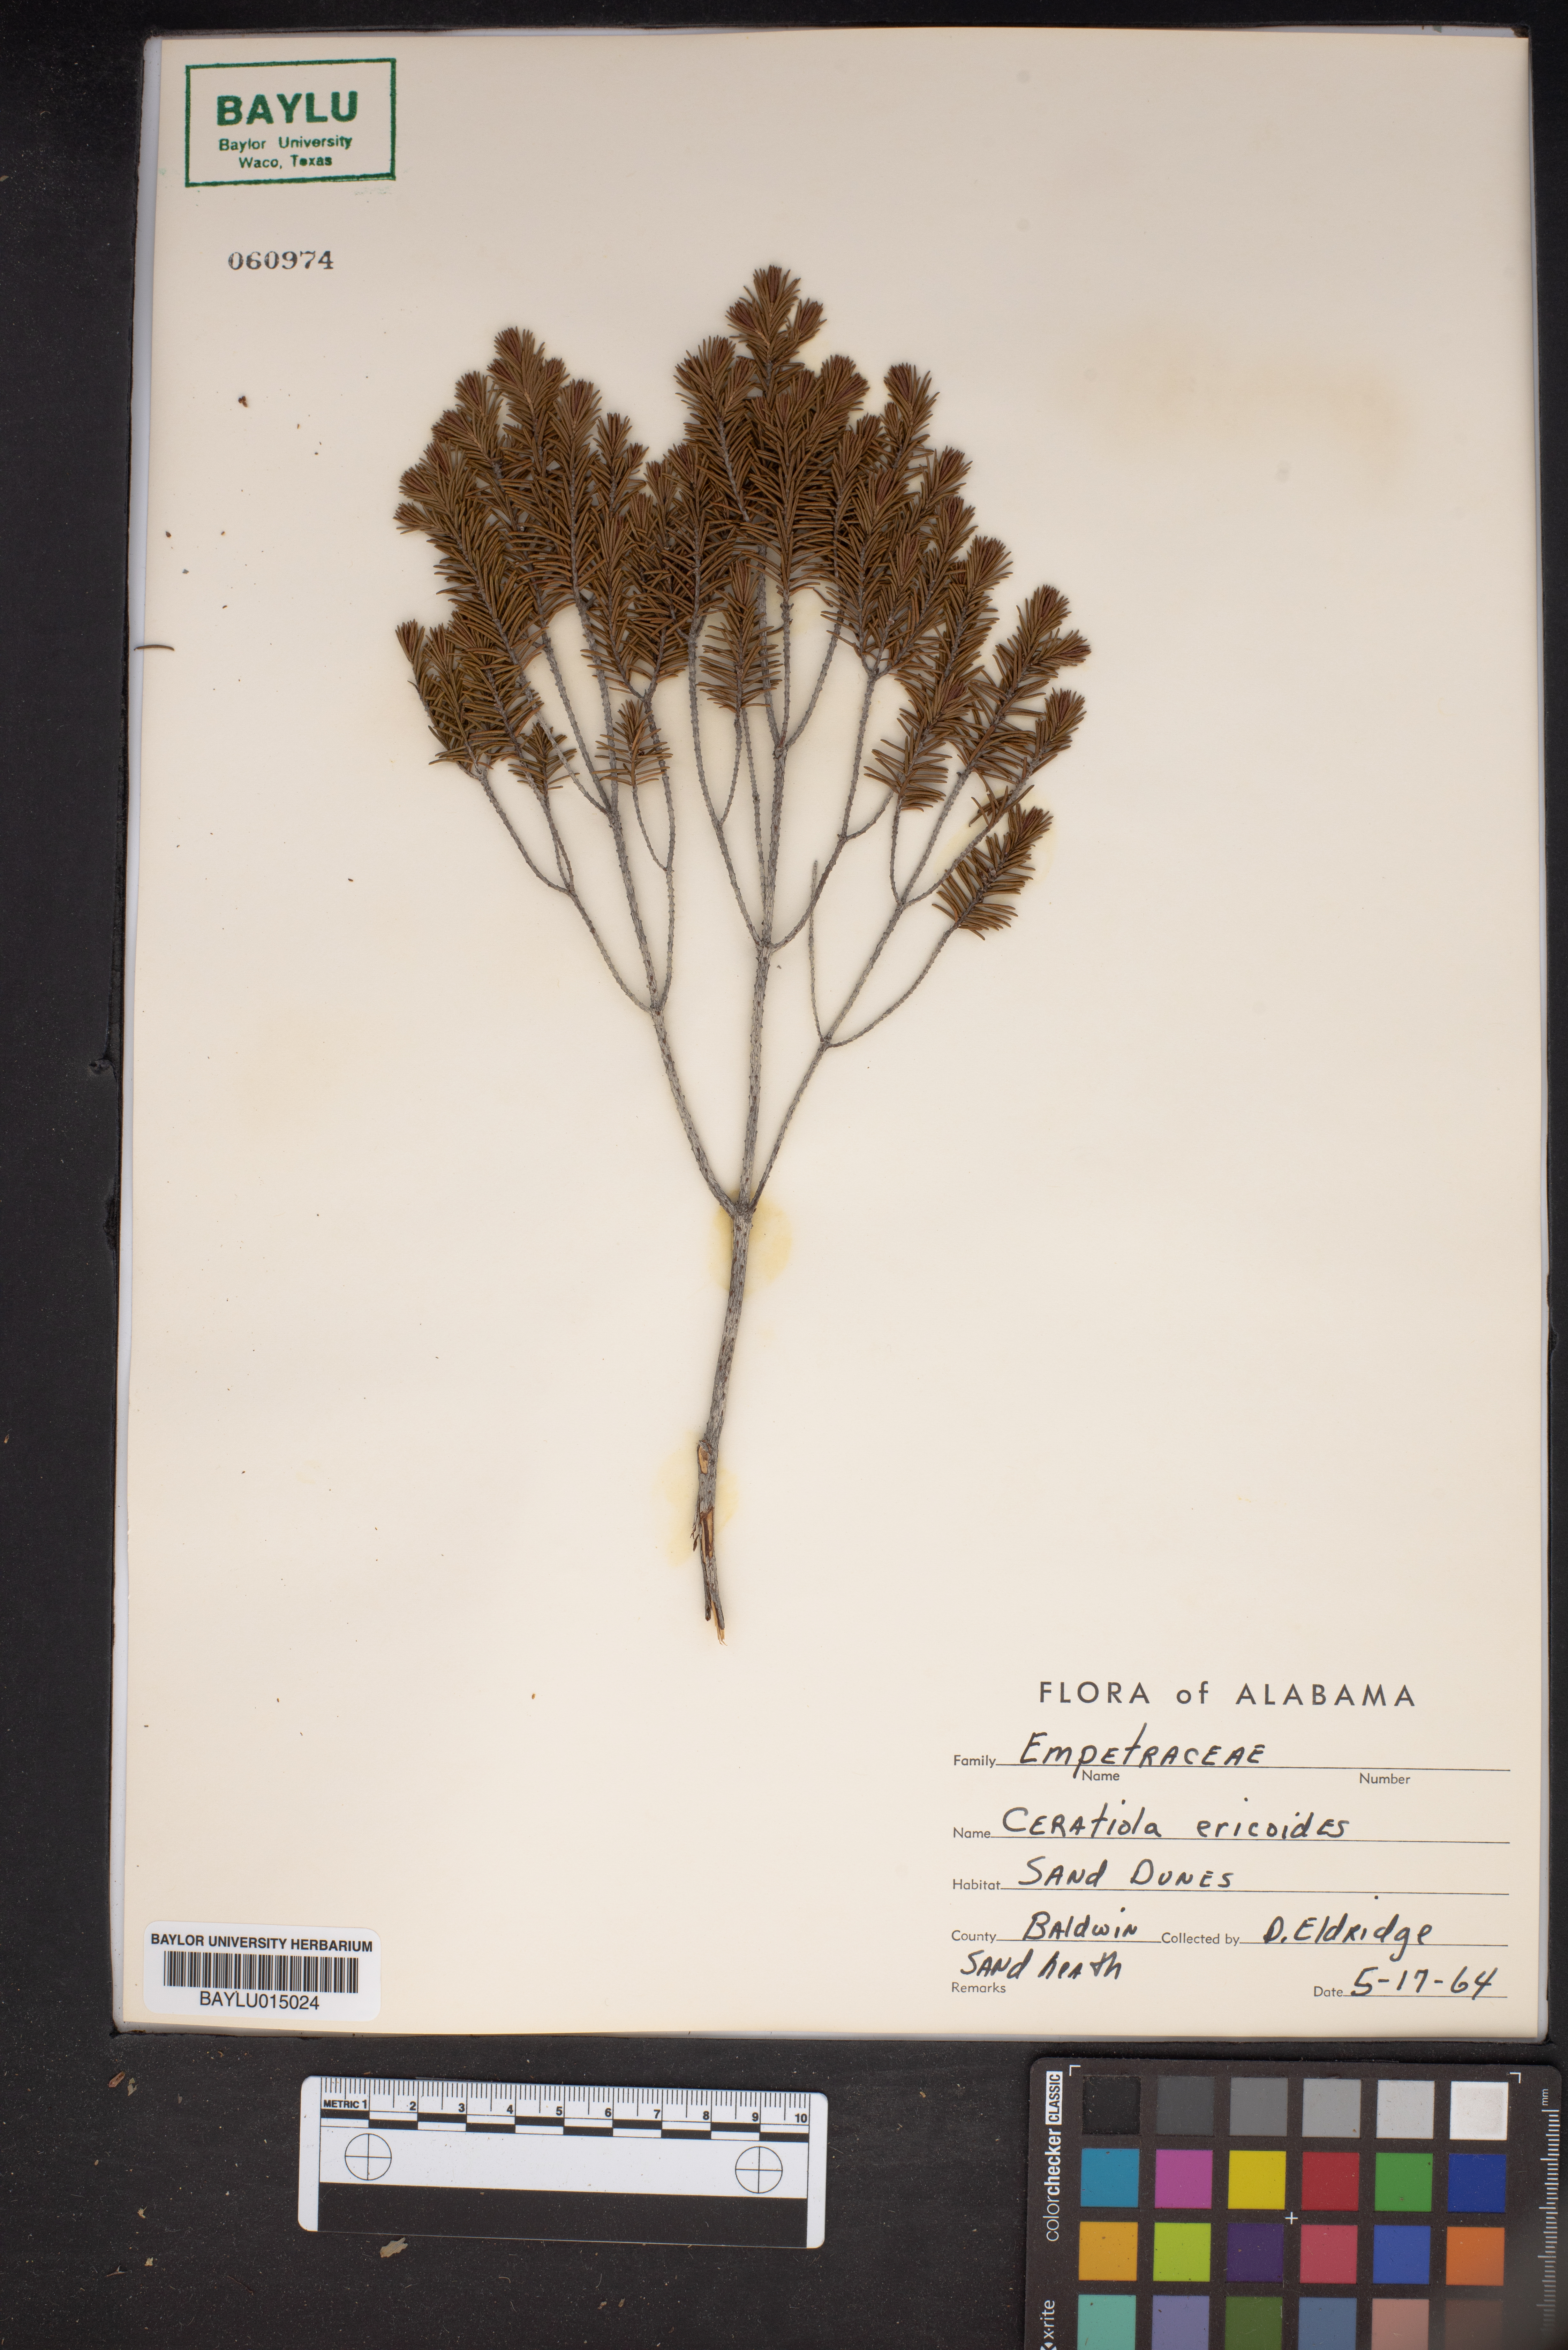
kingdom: Plantae
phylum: Tracheophyta
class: Magnoliopsida
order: Ericales
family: Ericaceae
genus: Ceratiola
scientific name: Ceratiola ericoides
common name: Sandhill-rosemary
